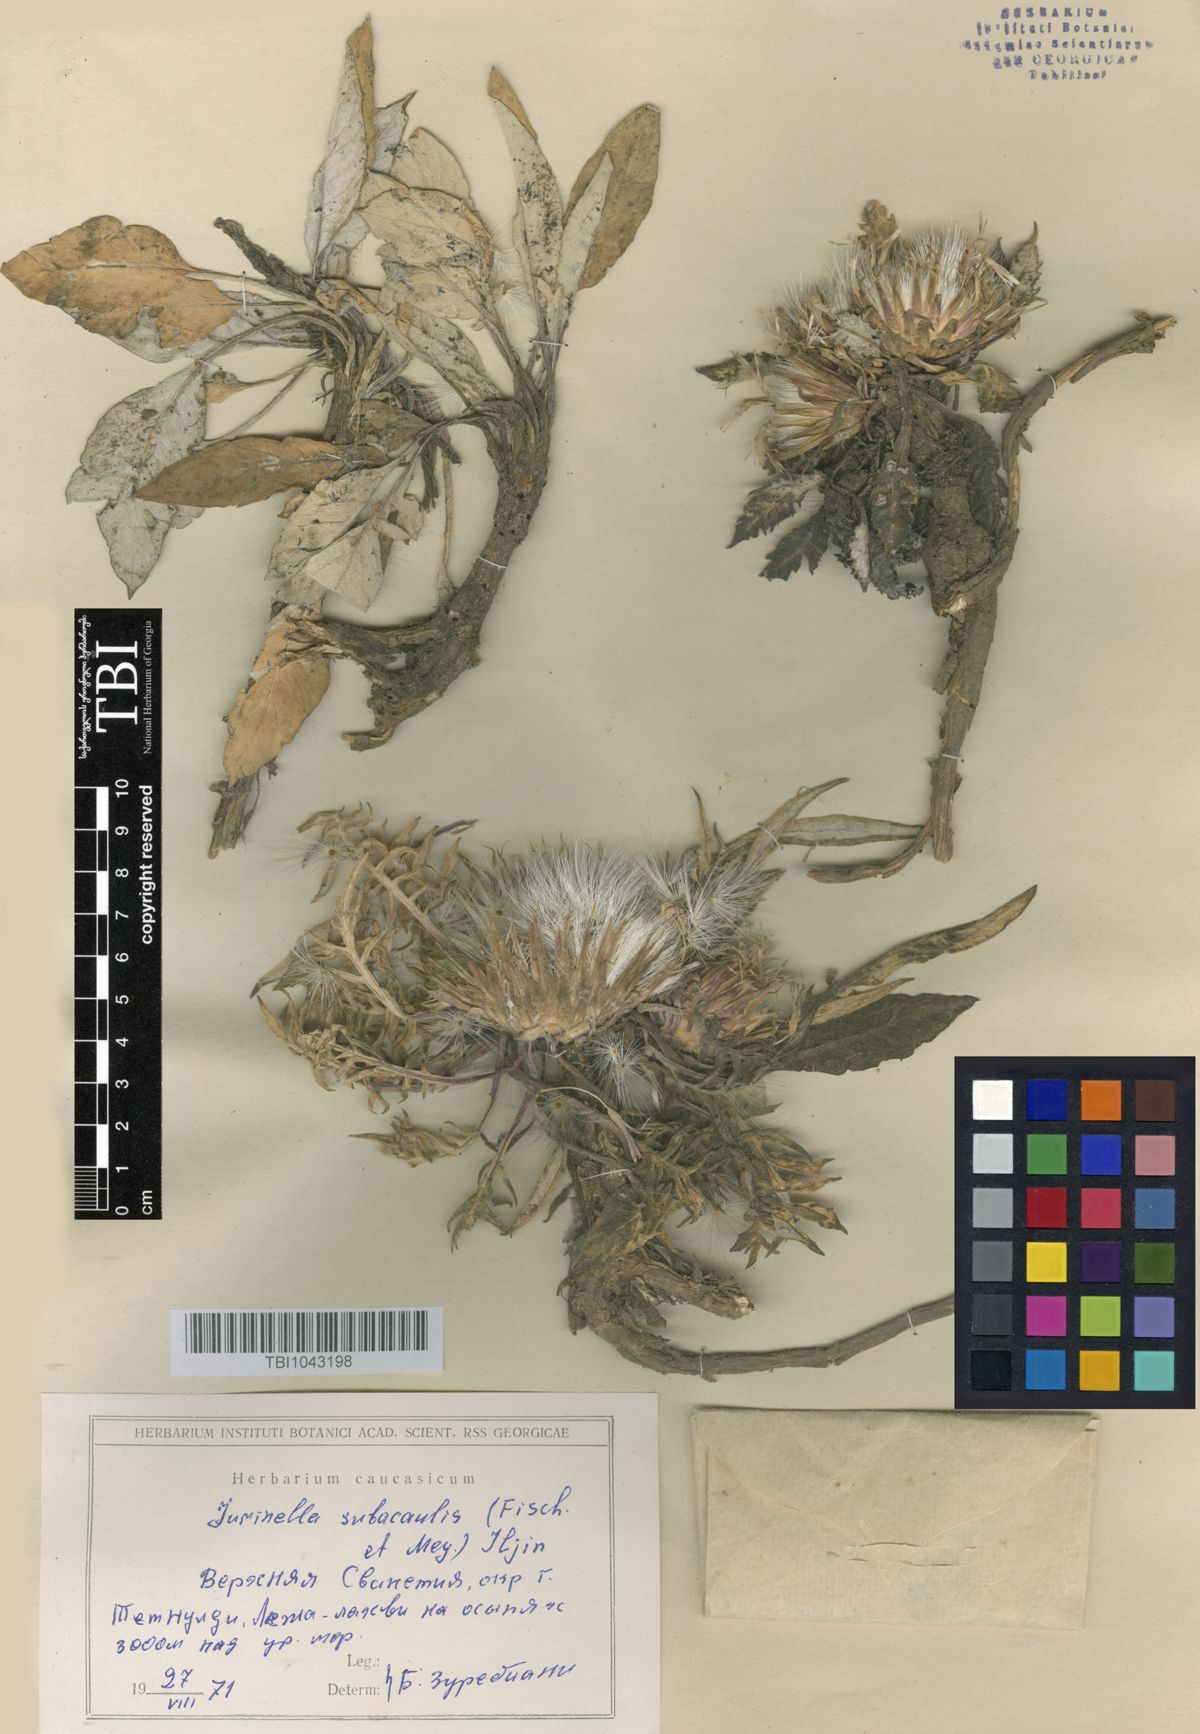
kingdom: Plantae
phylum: Tracheophyta
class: Magnoliopsida
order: Asterales
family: Asteraceae
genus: Jurinea
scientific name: Jurinea moschus
